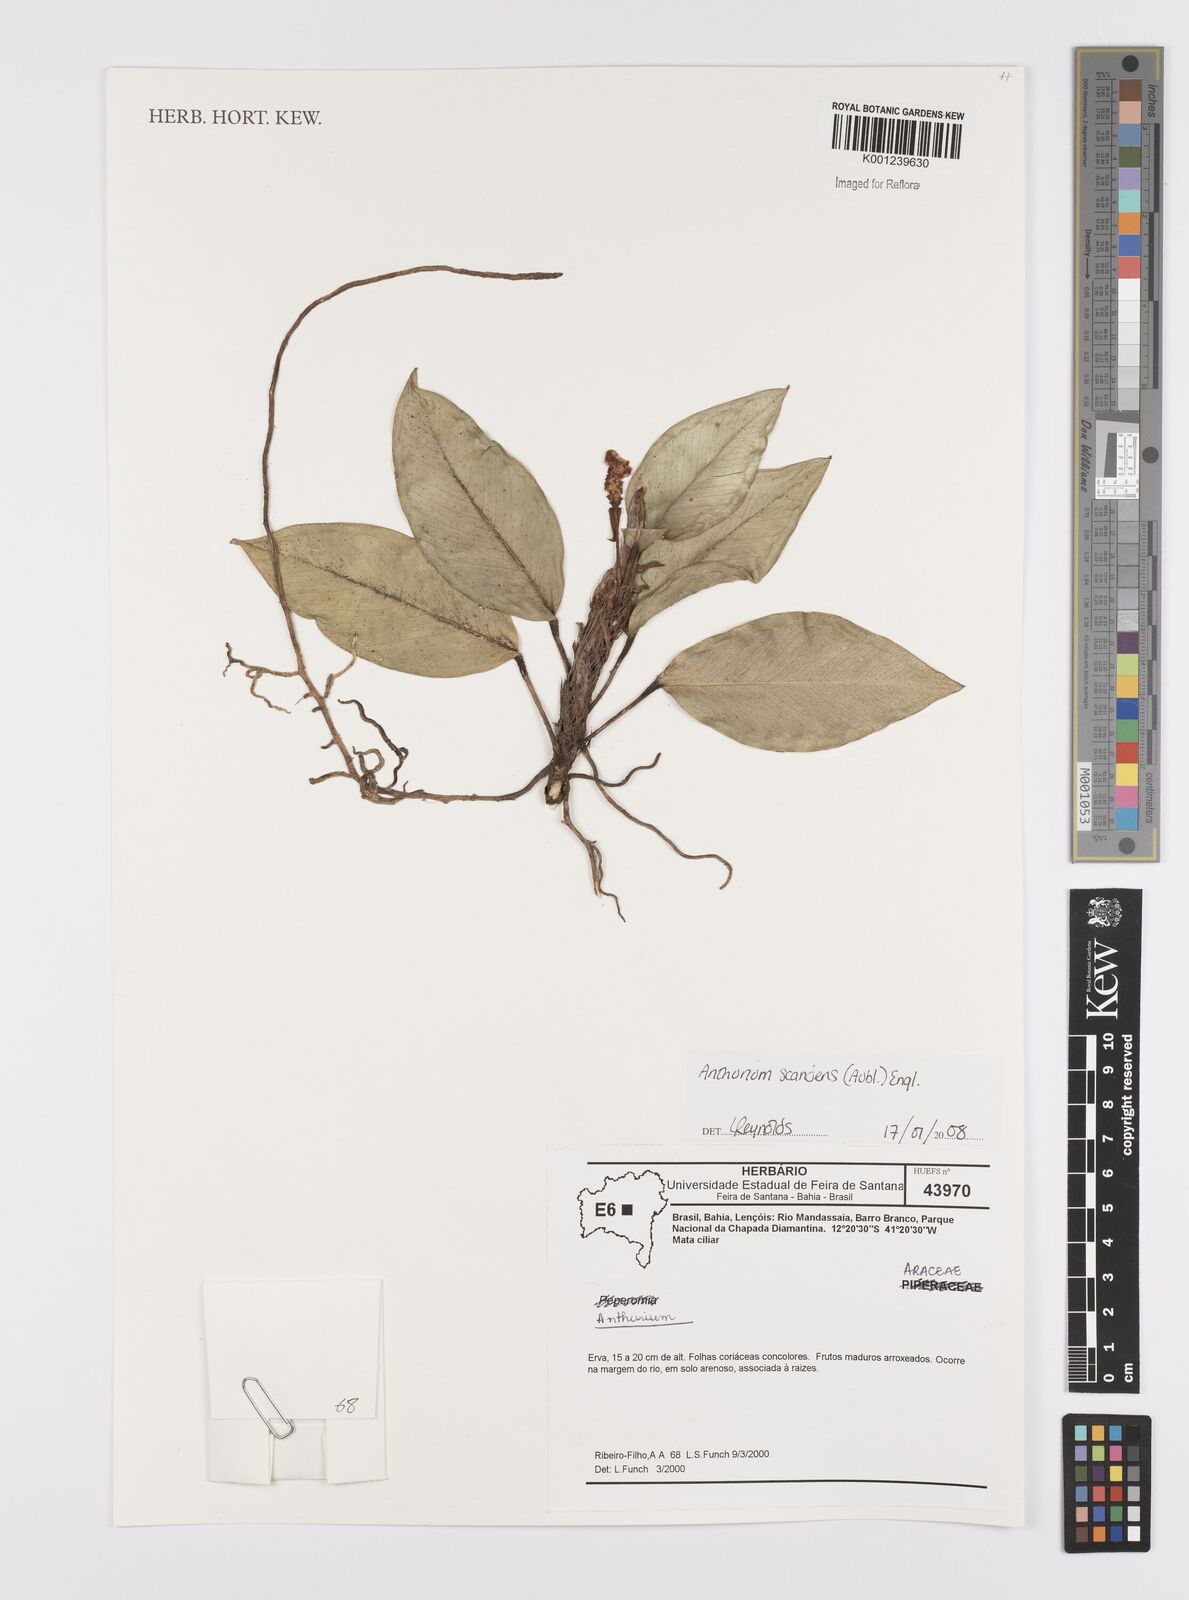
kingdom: Plantae
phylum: Tracheophyta
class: Liliopsida
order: Alismatales
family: Araceae
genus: Anthurium
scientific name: Anthurium scandens
